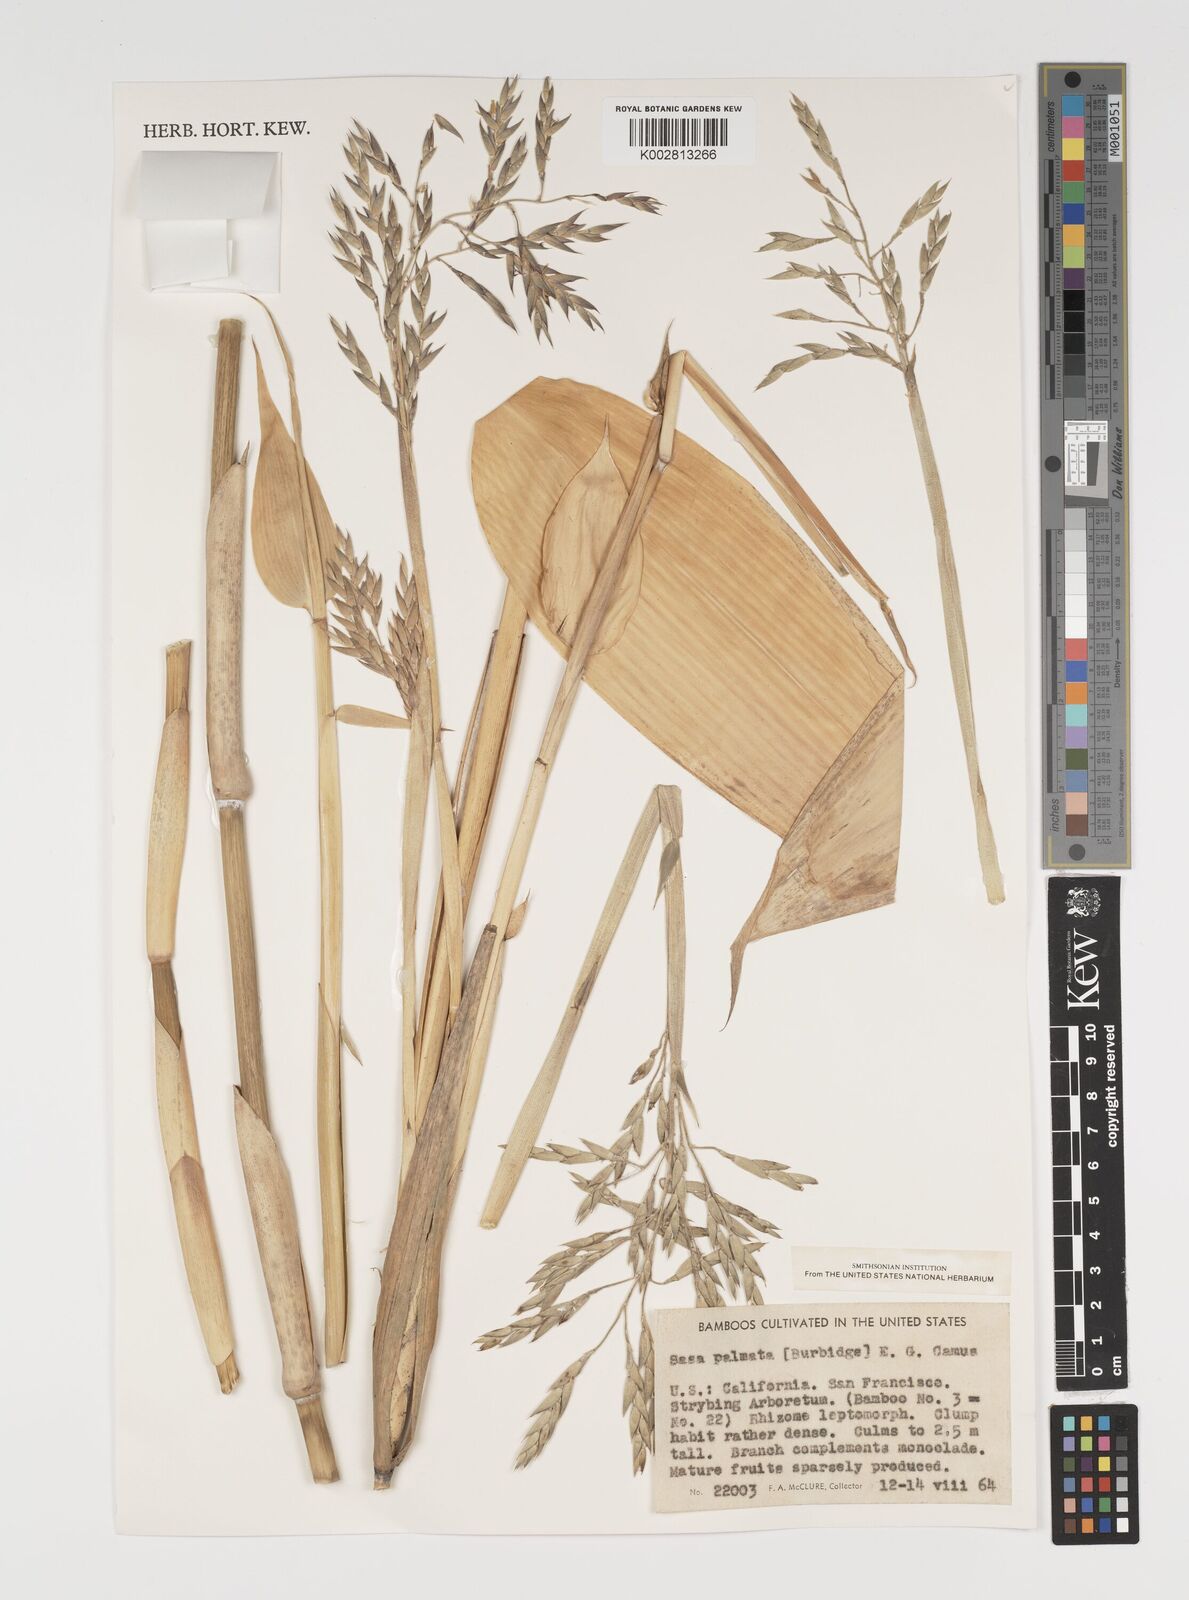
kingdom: Plantae
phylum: Tracheophyta
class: Liliopsida
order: Poales
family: Poaceae
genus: Sasa
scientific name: Sasa palmata
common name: Broad-leaved bamboo
